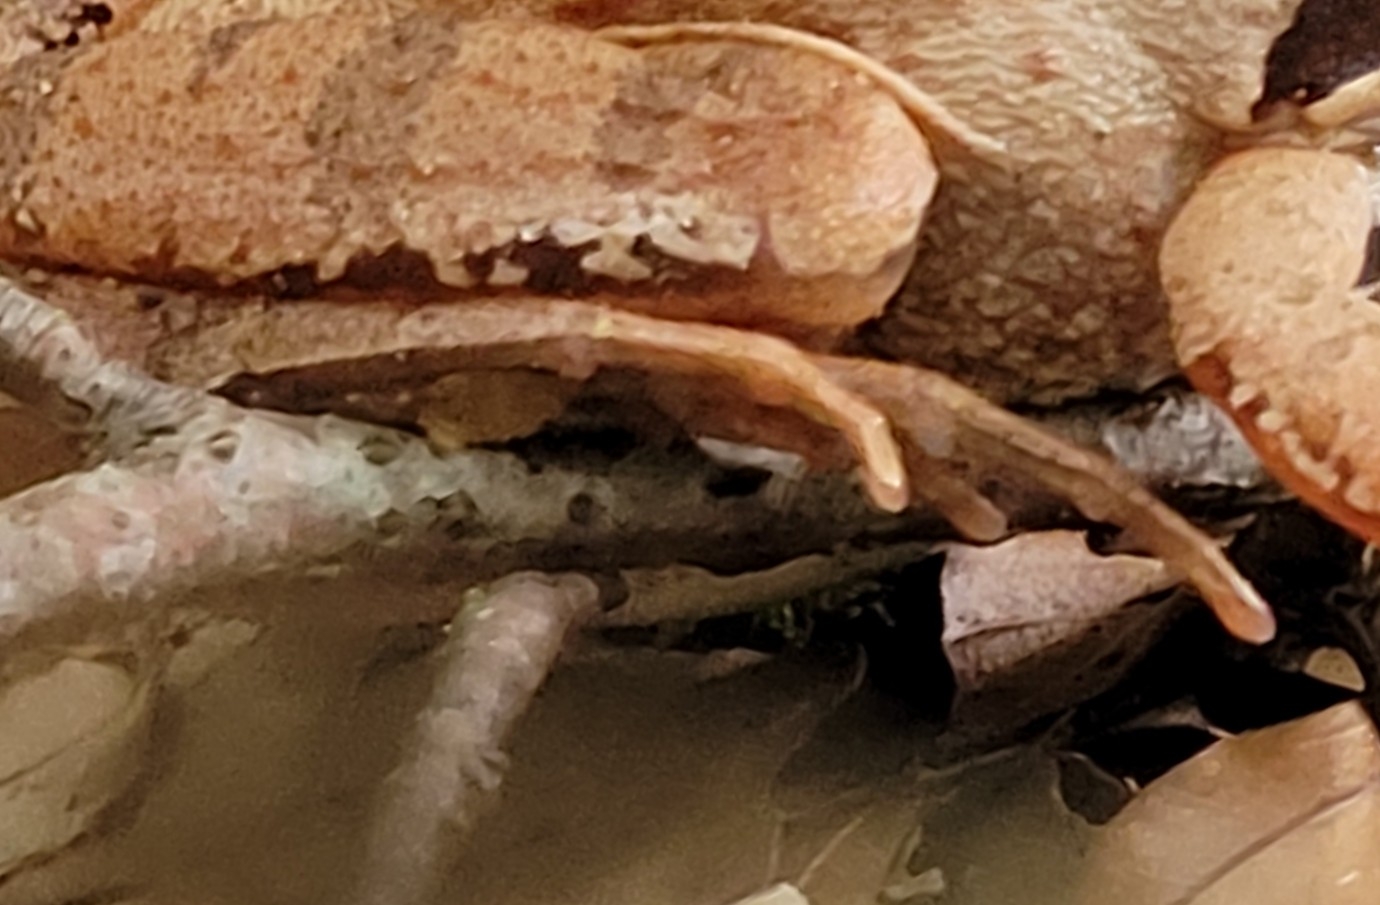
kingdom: Animalia
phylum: Chordata
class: Amphibia
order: Anura
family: Ranidae
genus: Rana
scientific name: Rana dalmatina
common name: Springfrø
